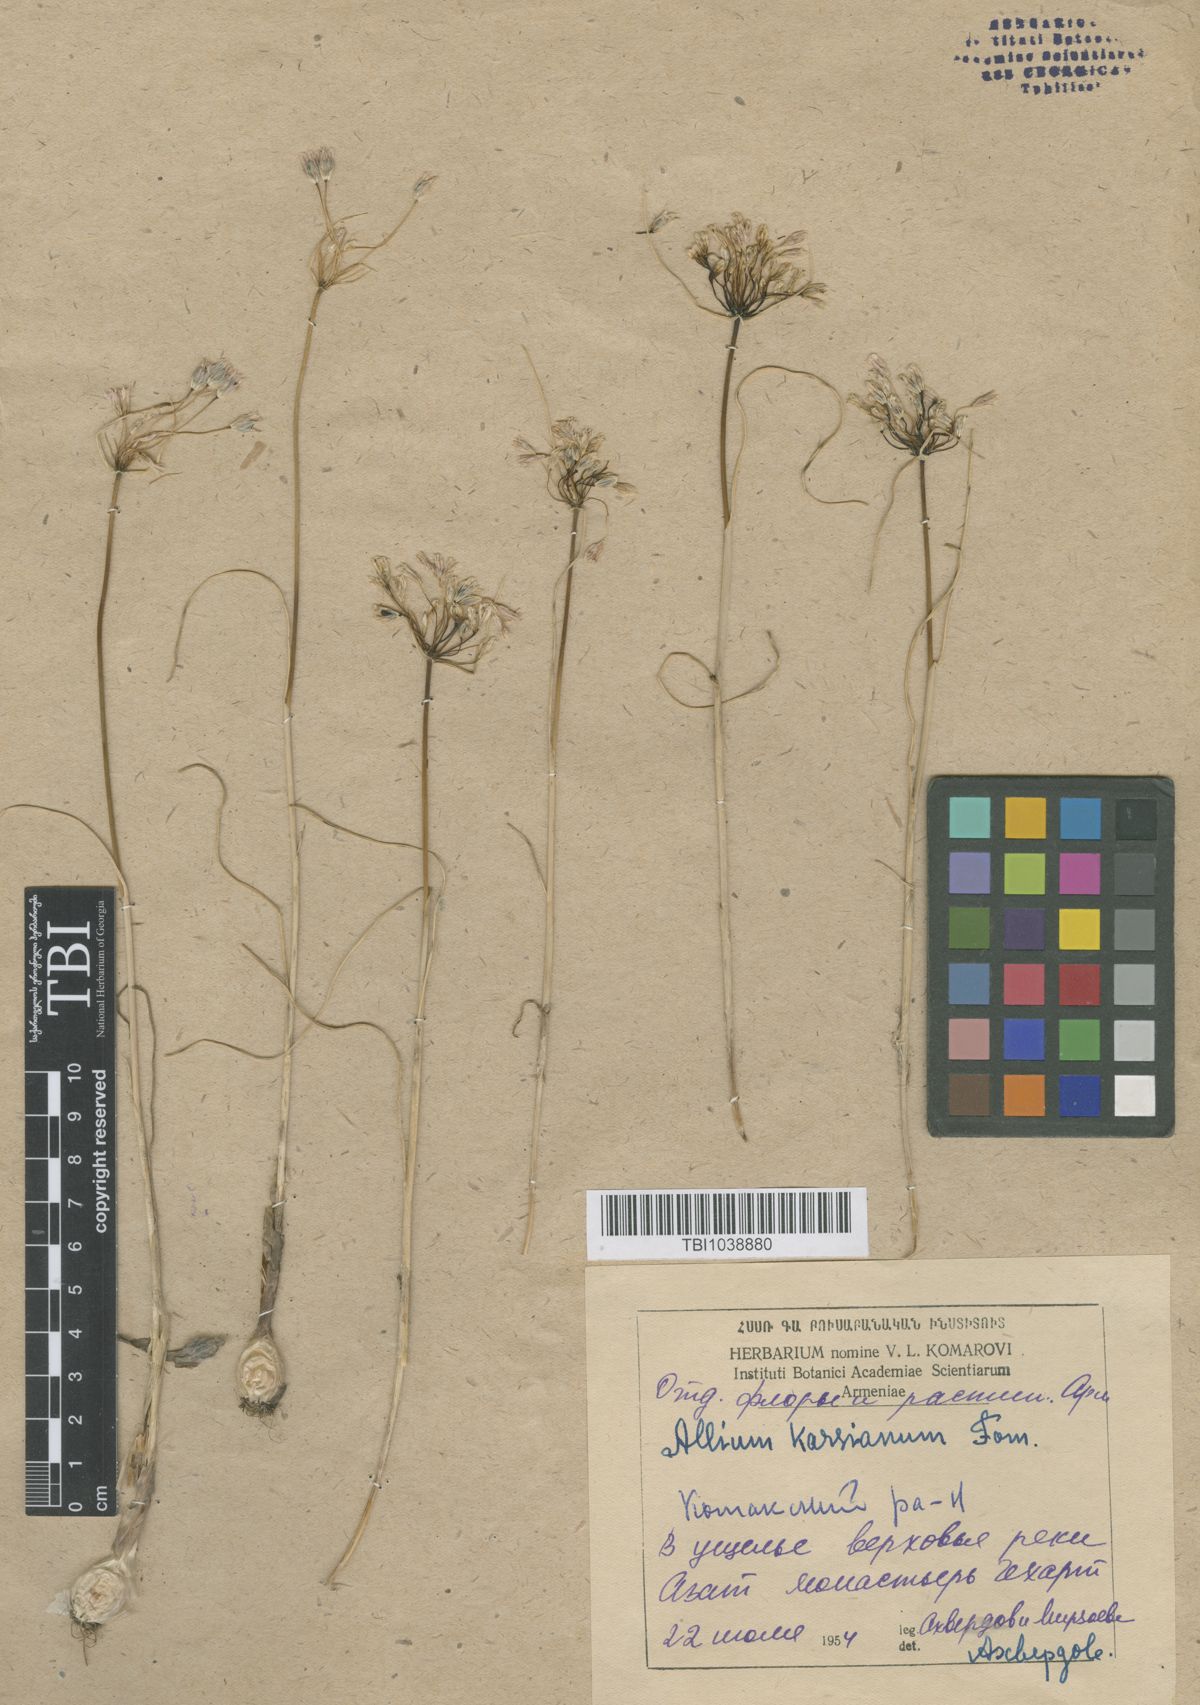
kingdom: Plantae
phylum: Tracheophyta
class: Liliopsida
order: Asparagales
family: Amaryllidaceae
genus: Allium
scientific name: Allium paniculatum
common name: Pale garlic
